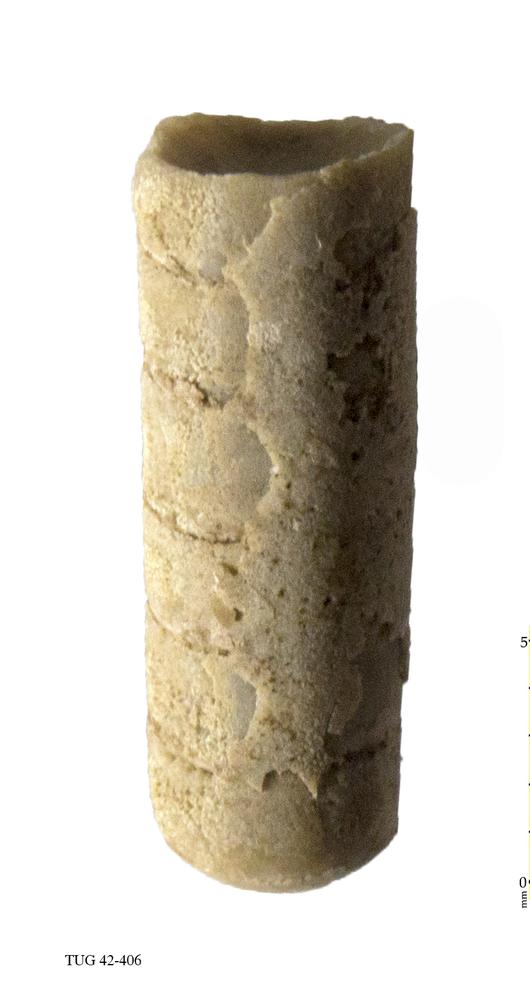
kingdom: Animalia
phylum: Mollusca
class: Cephalopoda
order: Orthocerida
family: Orthoceratidae
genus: Orthoceras
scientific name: Orthoceras regulare
